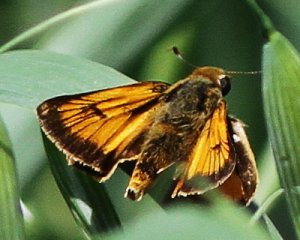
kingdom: Animalia
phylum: Arthropoda
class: Insecta
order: Lepidoptera
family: Hesperiidae
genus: Atrytone
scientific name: Atrytone delaware
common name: Delaware Skipper
